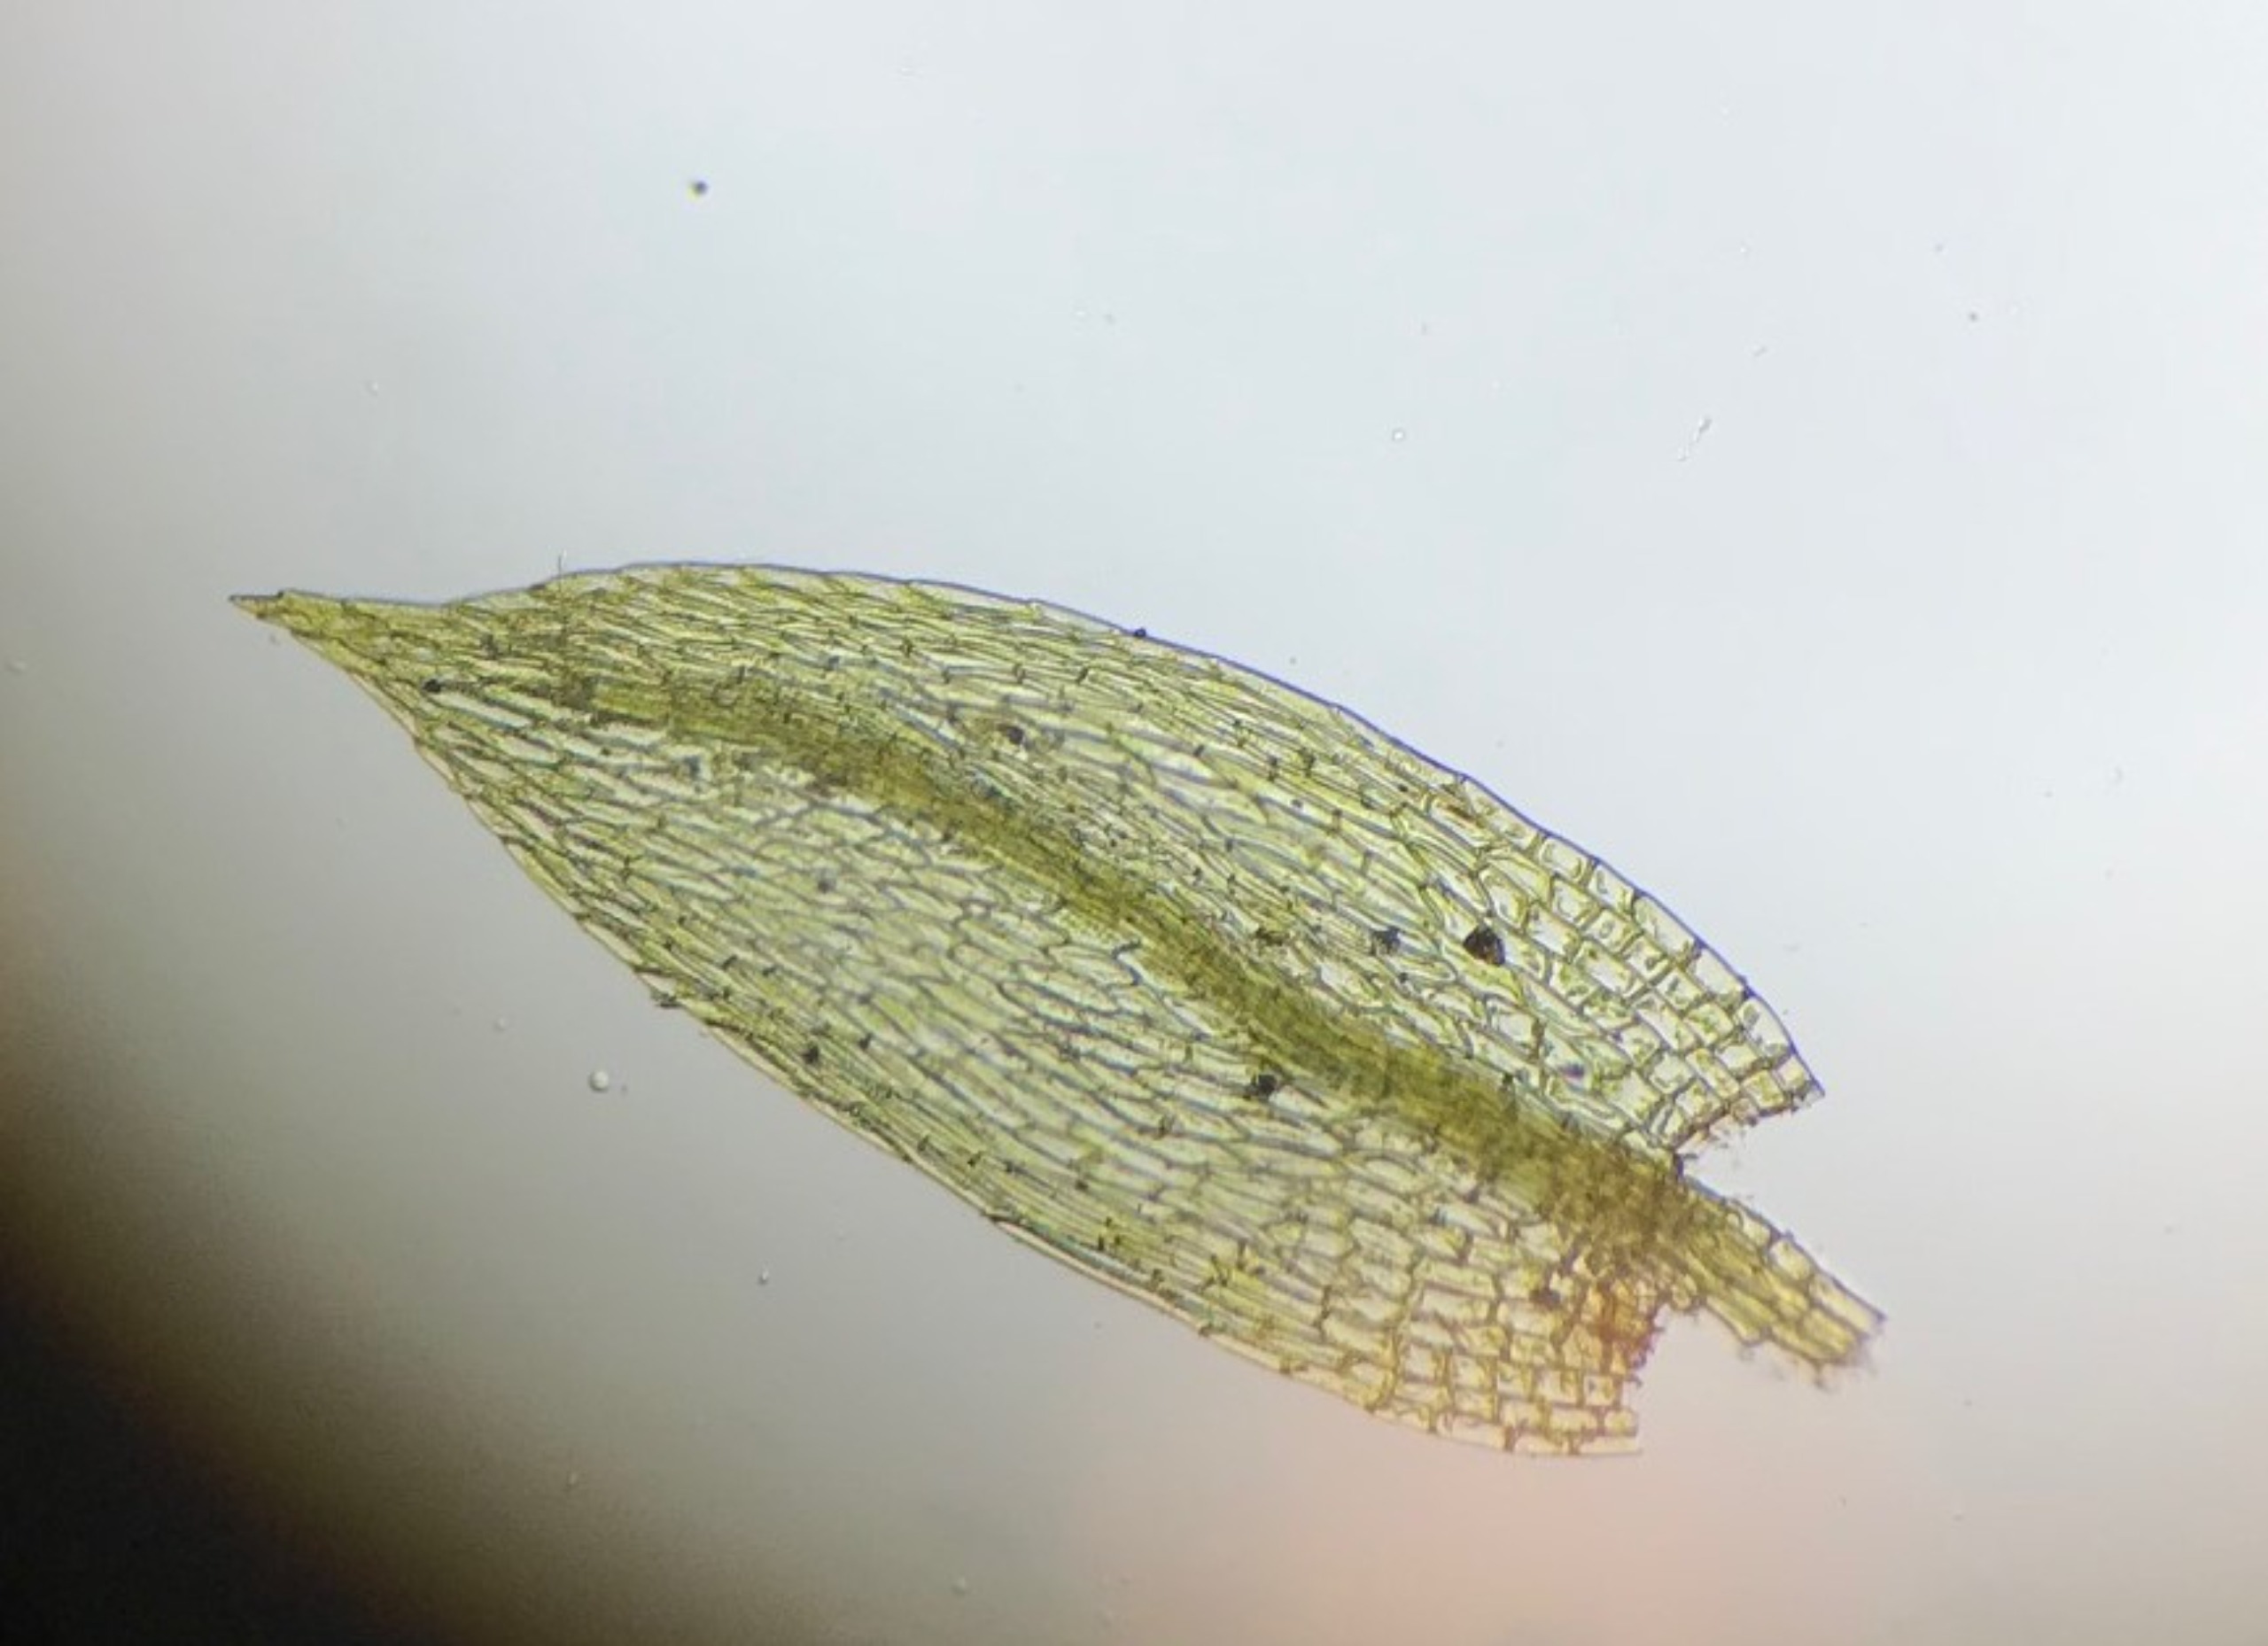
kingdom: Plantae
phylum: Bryophyta
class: Bryopsida
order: Bryales
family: Bryaceae
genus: Gemmabryum
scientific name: Gemmabryum subapiculatum
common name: Storknoldet bryum
